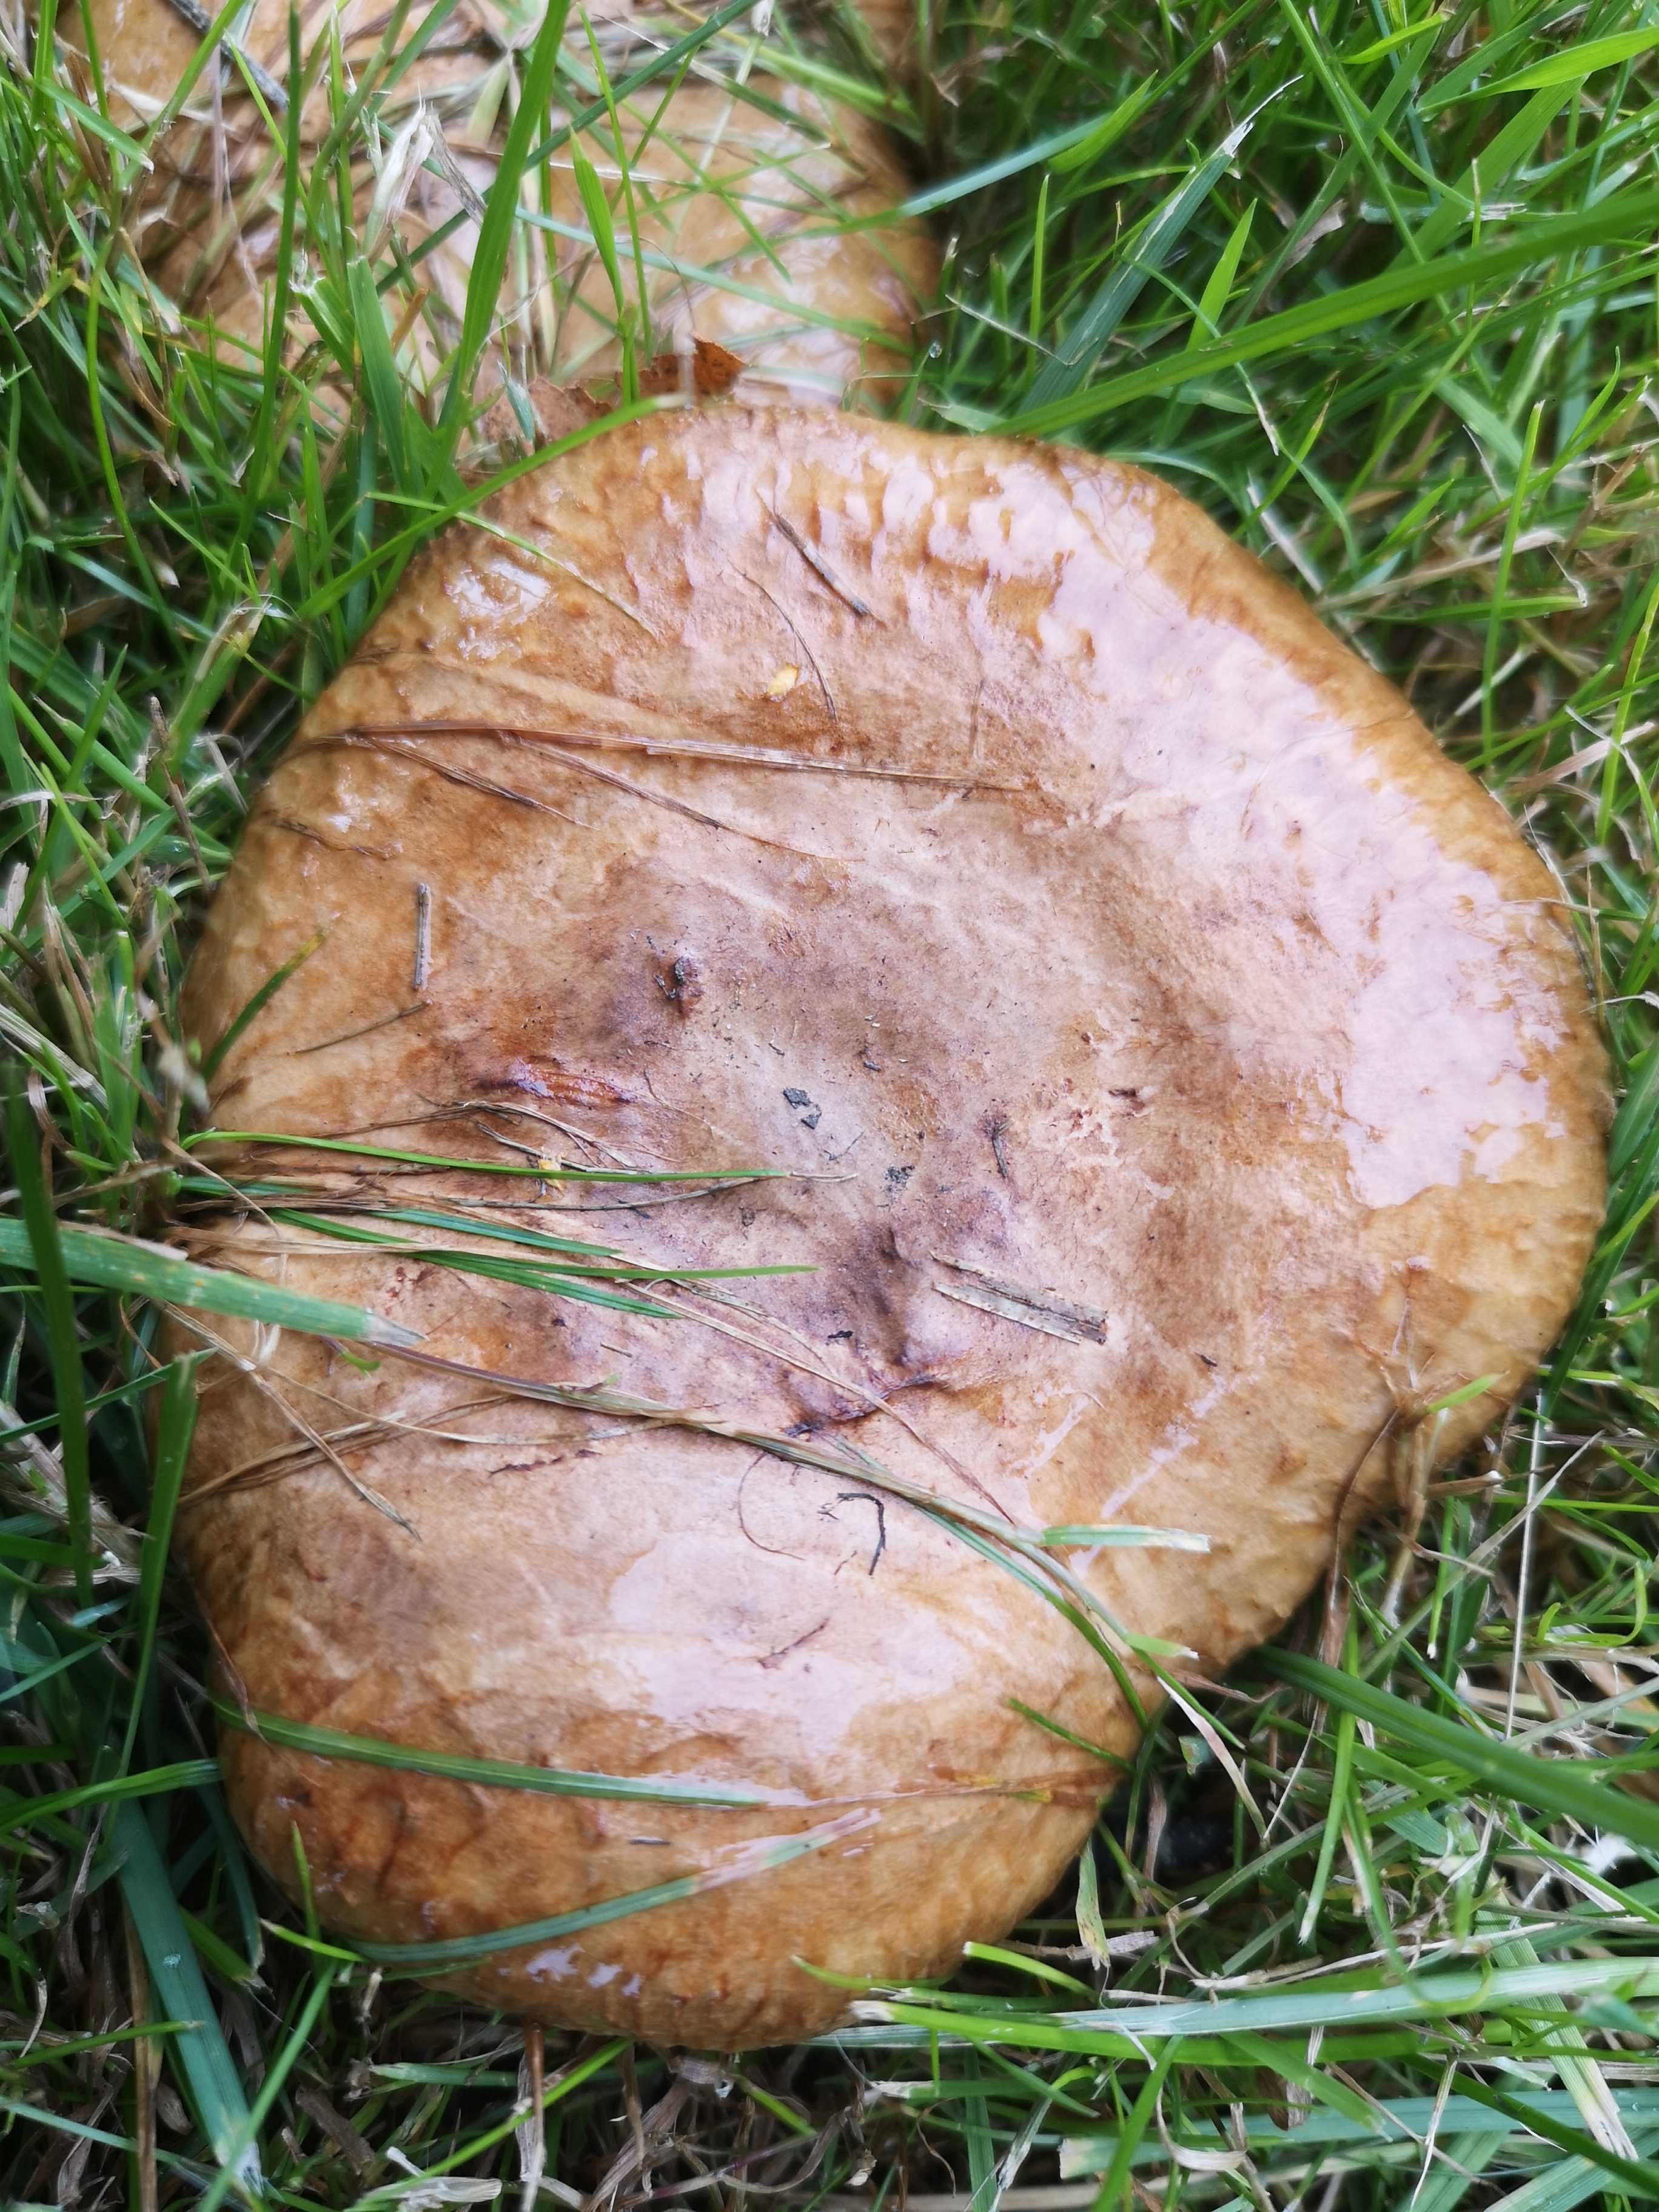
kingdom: Fungi
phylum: Basidiomycota
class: Agaricomycetes
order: Boletales
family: Paxillaceae
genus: Paxillus
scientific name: Paxillus obscurisporus
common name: mahognisporet netbladhat
